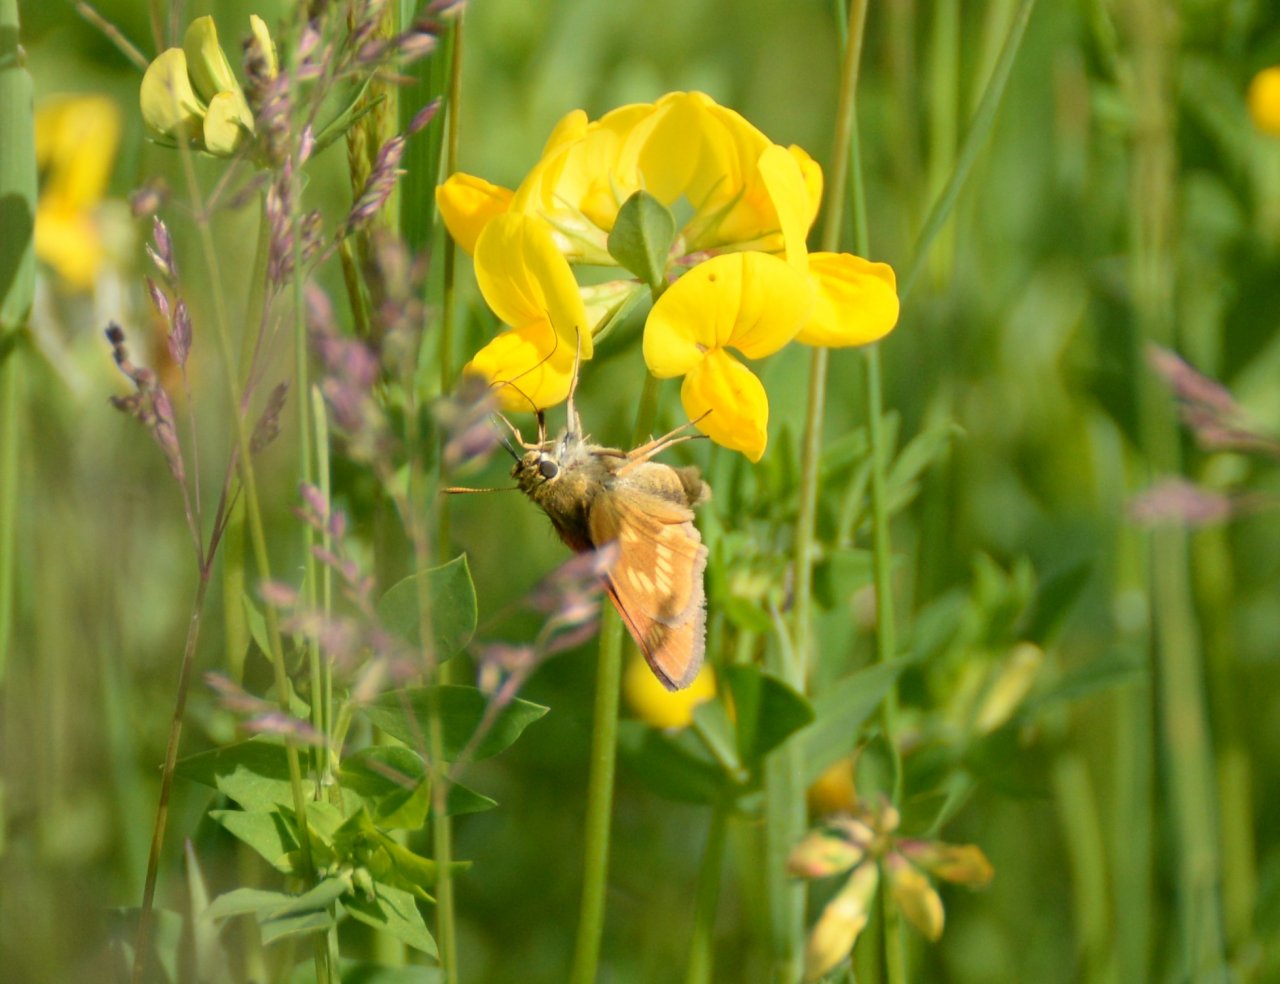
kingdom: Animalia
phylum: Arthropoda
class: Insecta
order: Lepidoptera
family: Hesperiidae
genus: Polites
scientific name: Polites
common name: Long Dash Skipper
